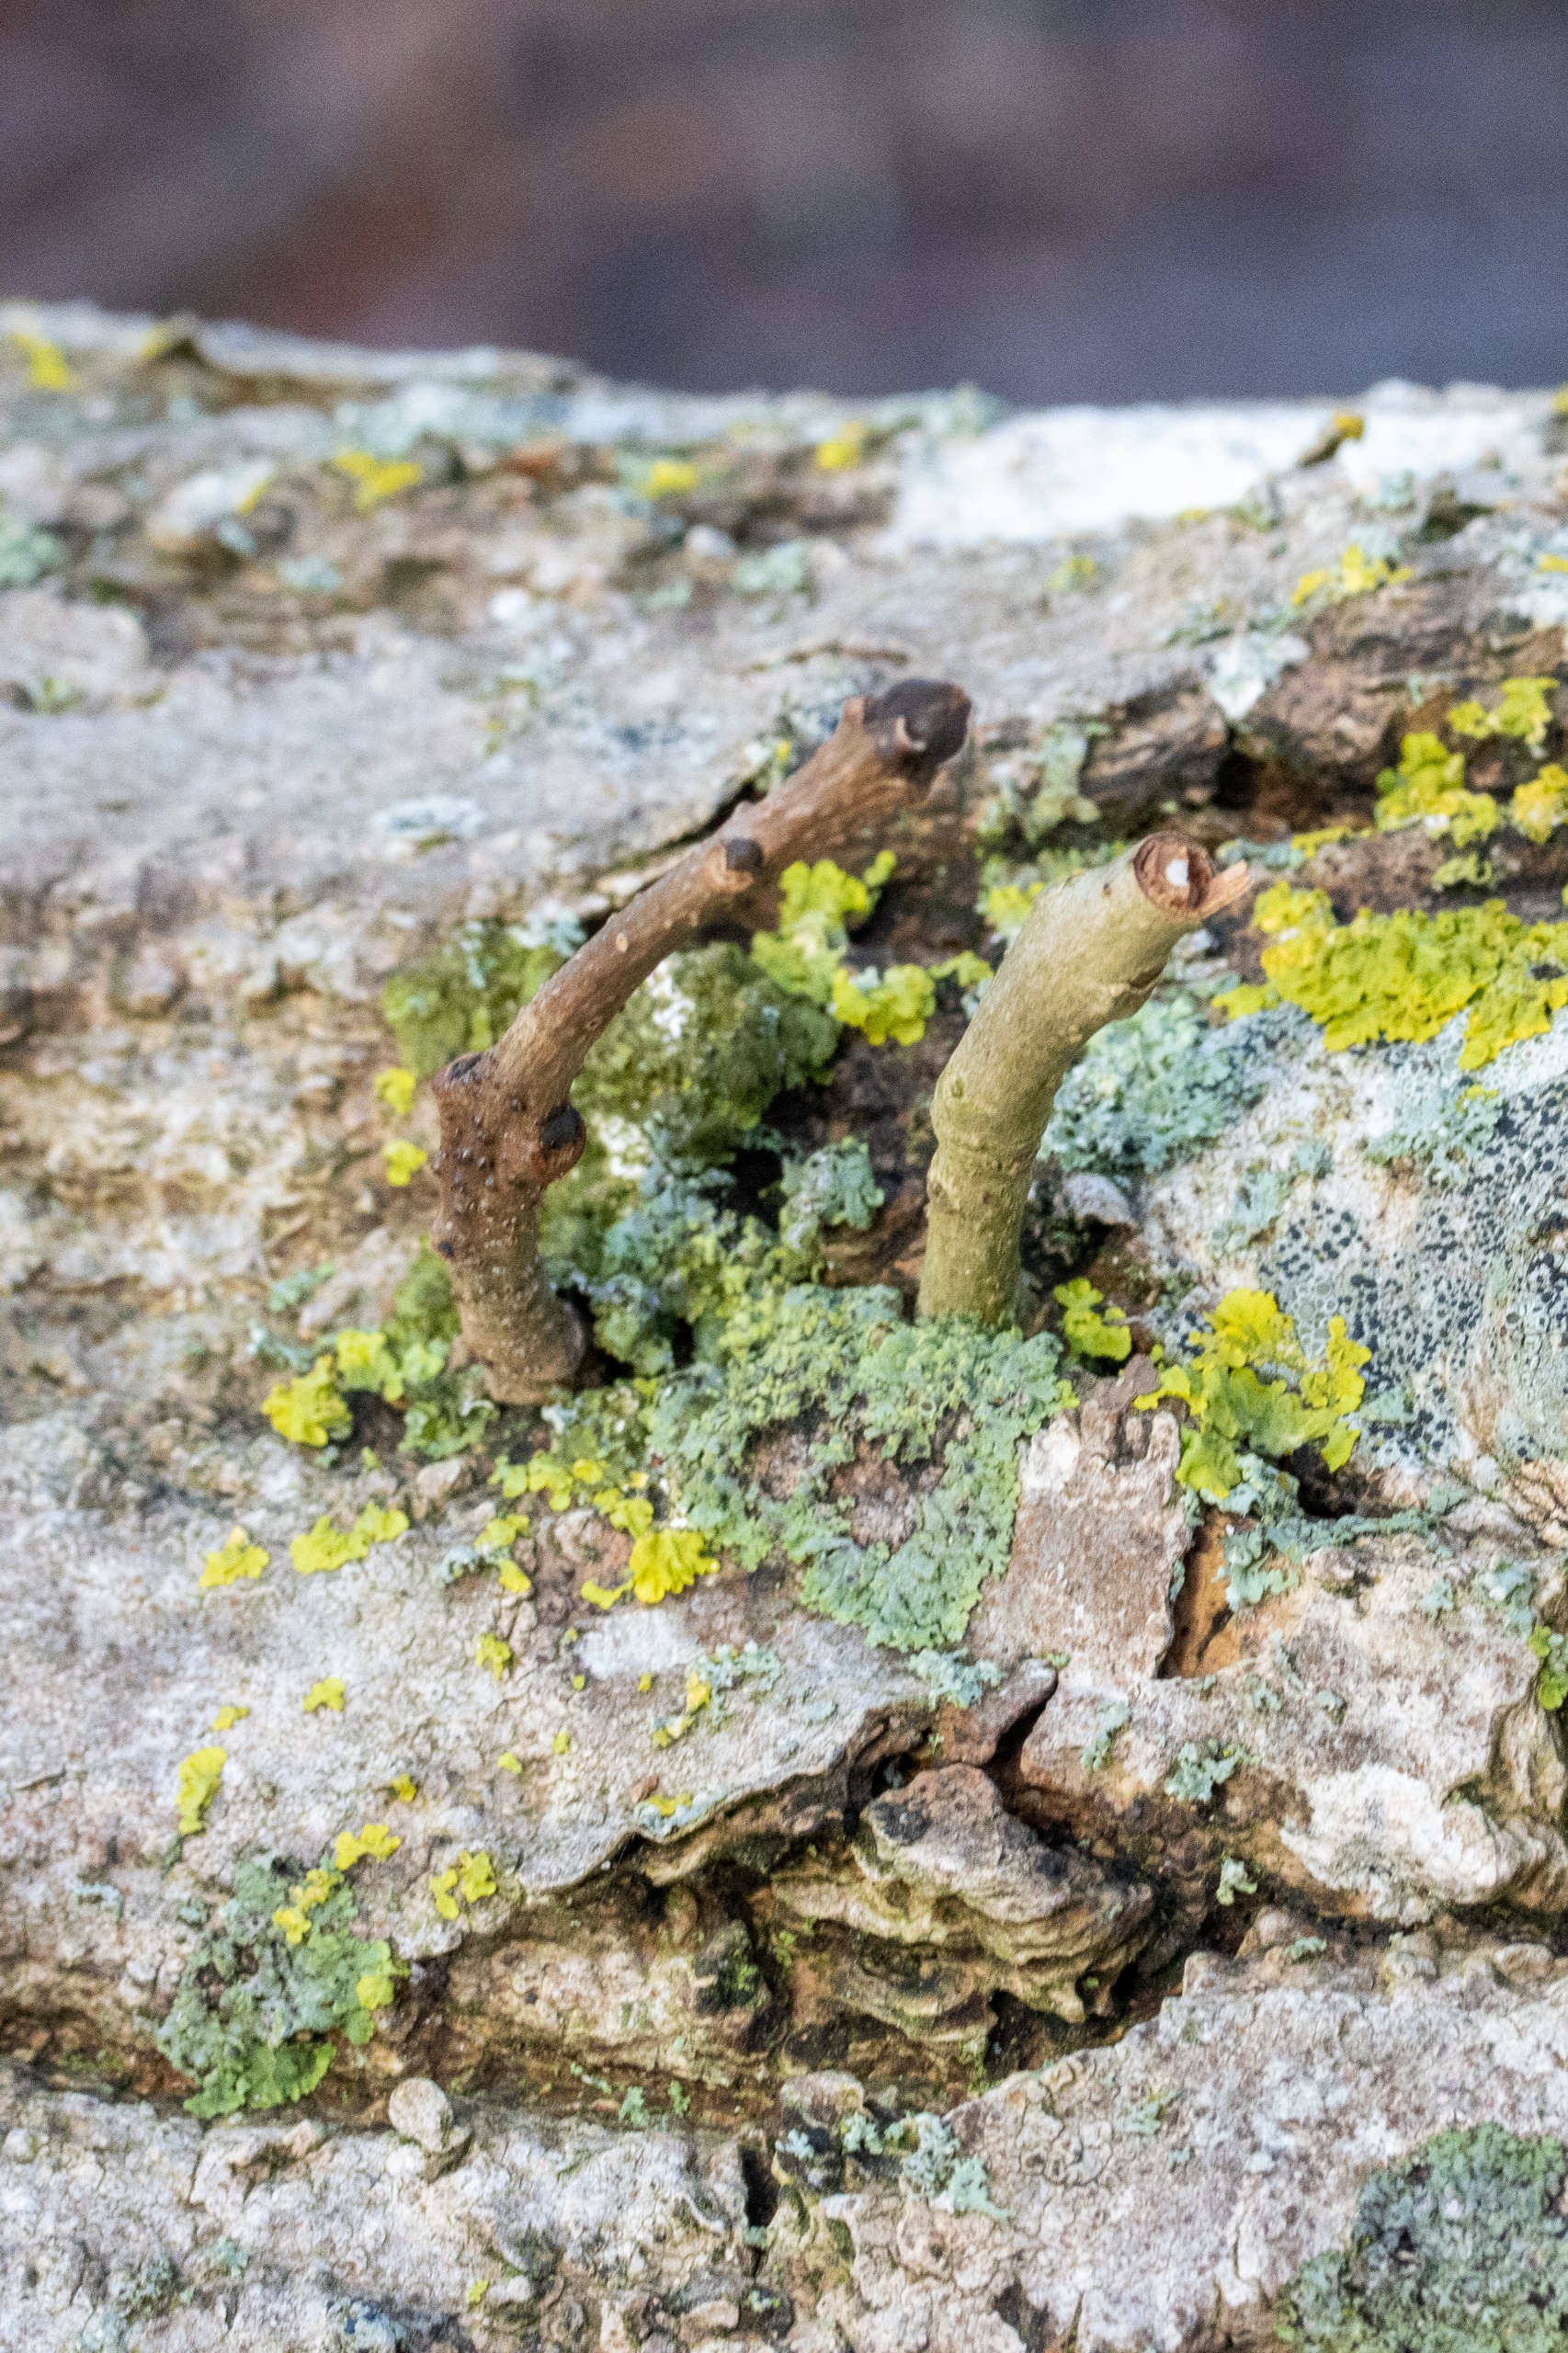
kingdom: Plantae
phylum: Tracheophyta
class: Magnoliopsida
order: Lamiales
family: Oleaceae
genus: Fraxinus
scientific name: Fraxinus excelsior
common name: Ask
